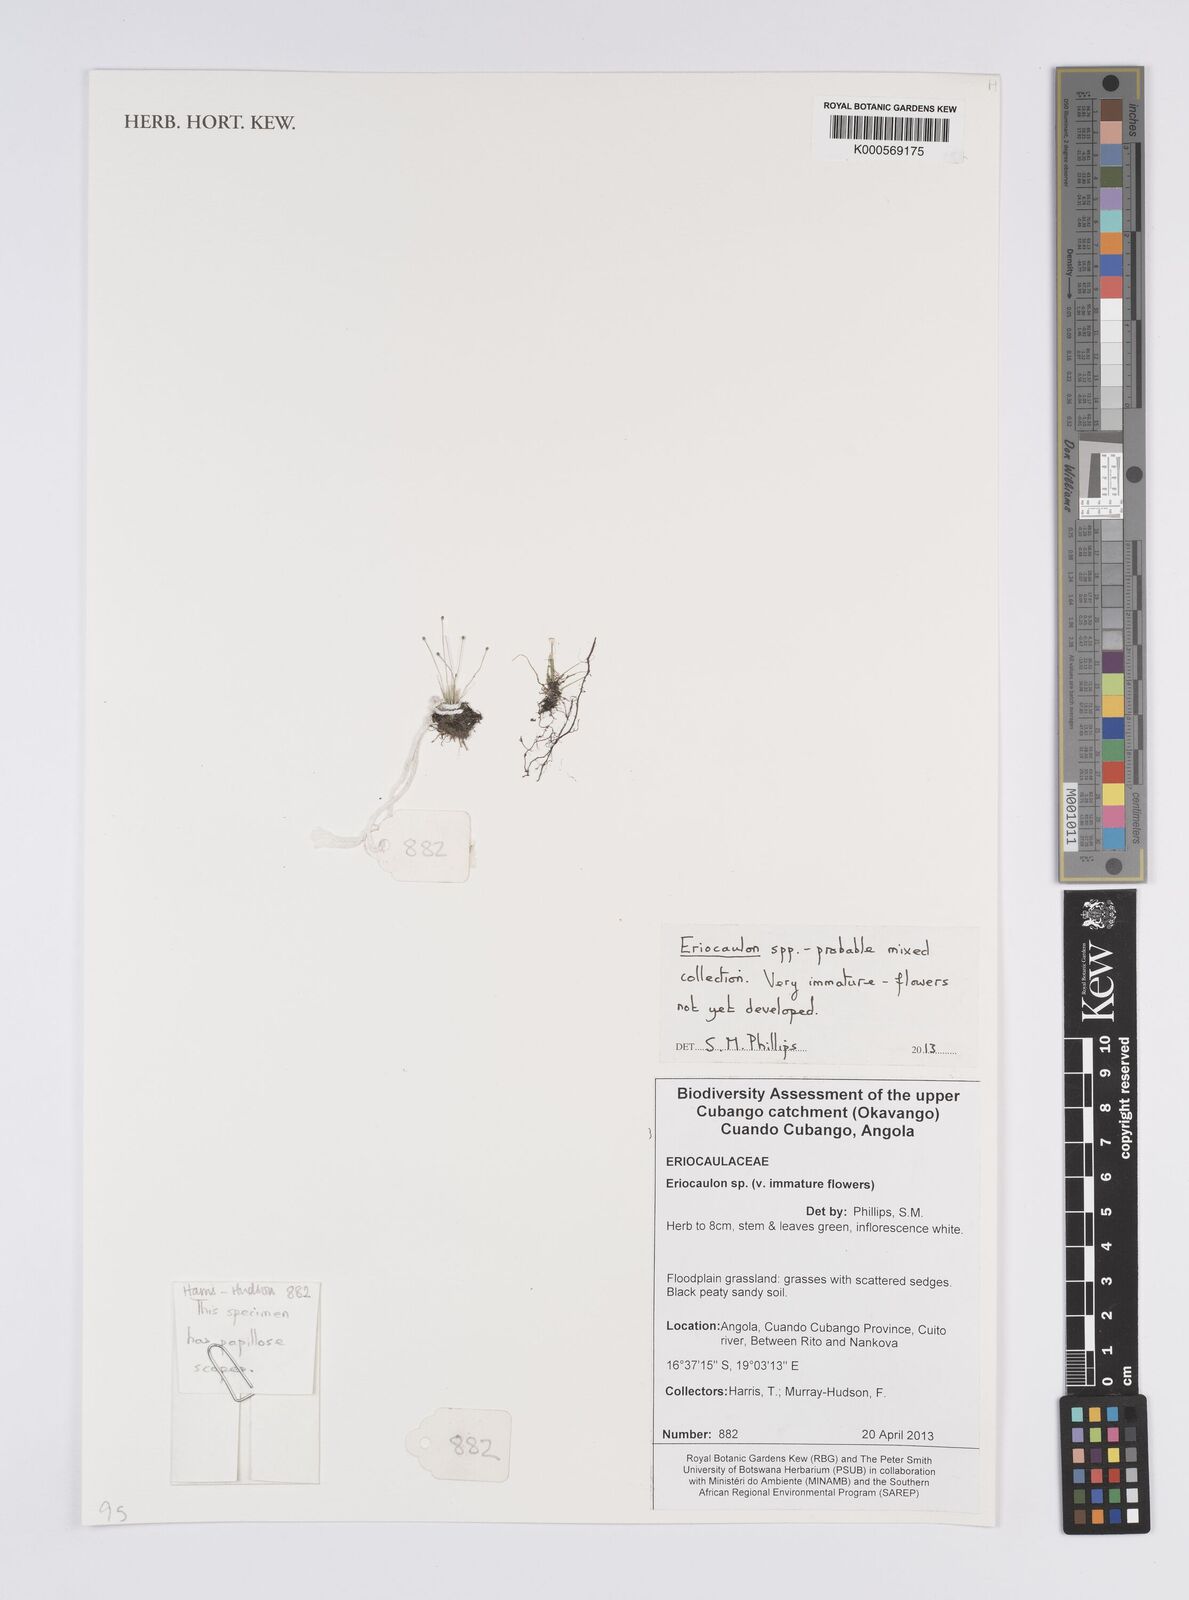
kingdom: Plantae
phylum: Tracheophyta
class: Liliopsida
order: Poales
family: Eriocaulaceae
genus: Eriocaulon
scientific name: Eriocaulon
